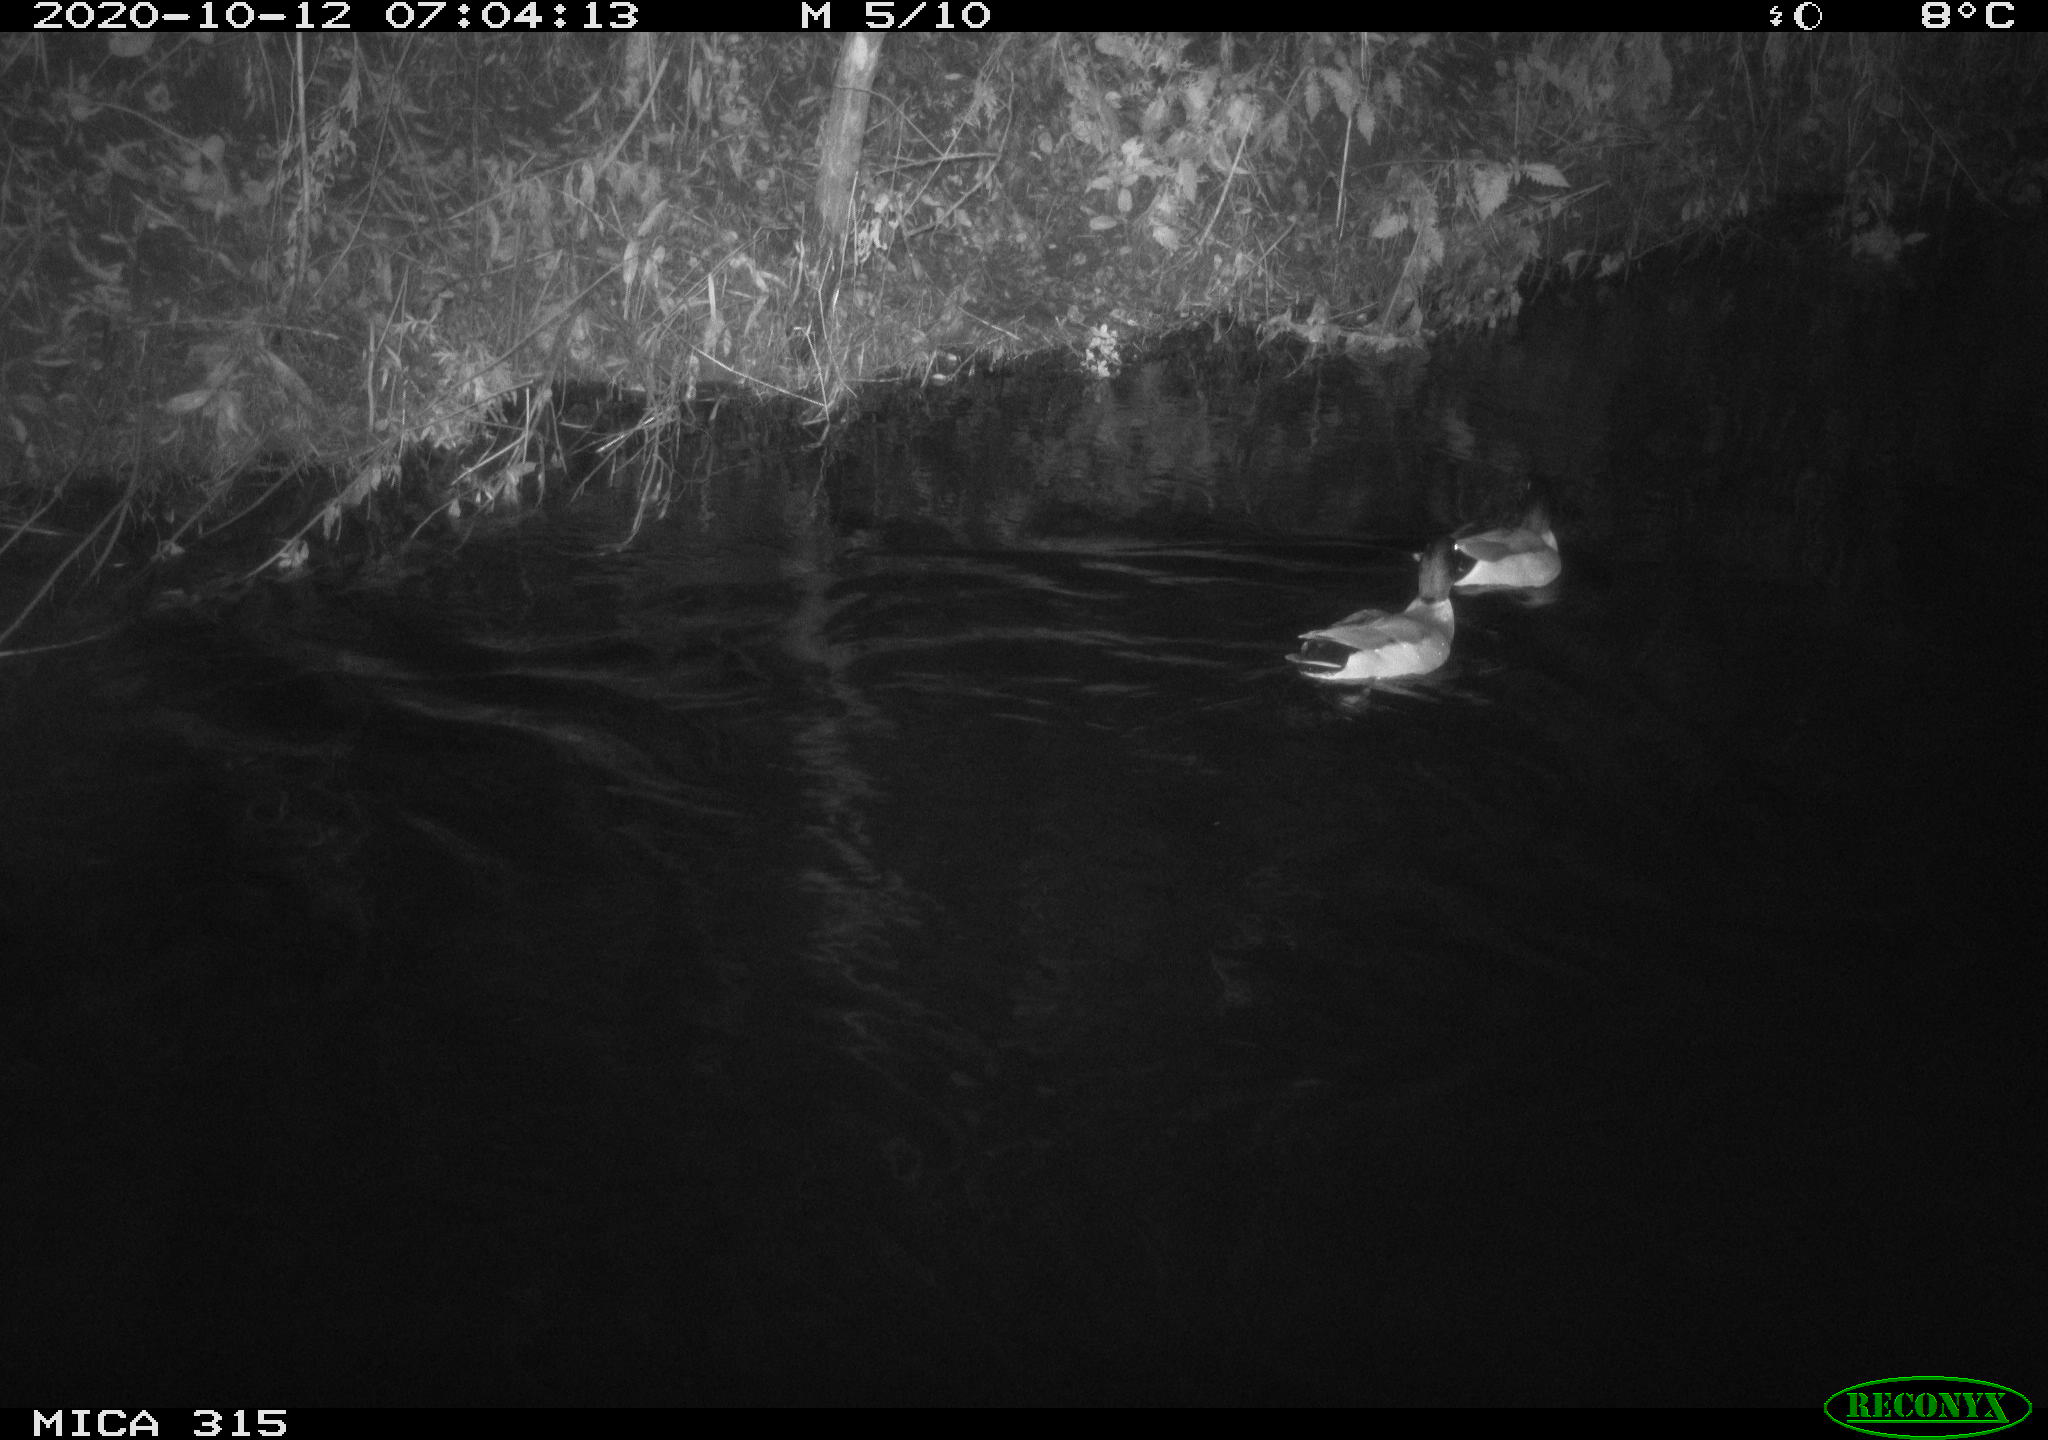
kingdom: Animalia
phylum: Chordata
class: Aves
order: Anseriformes
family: Anatidae
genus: Anas
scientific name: Anas platyrhynchos
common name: Mallard
